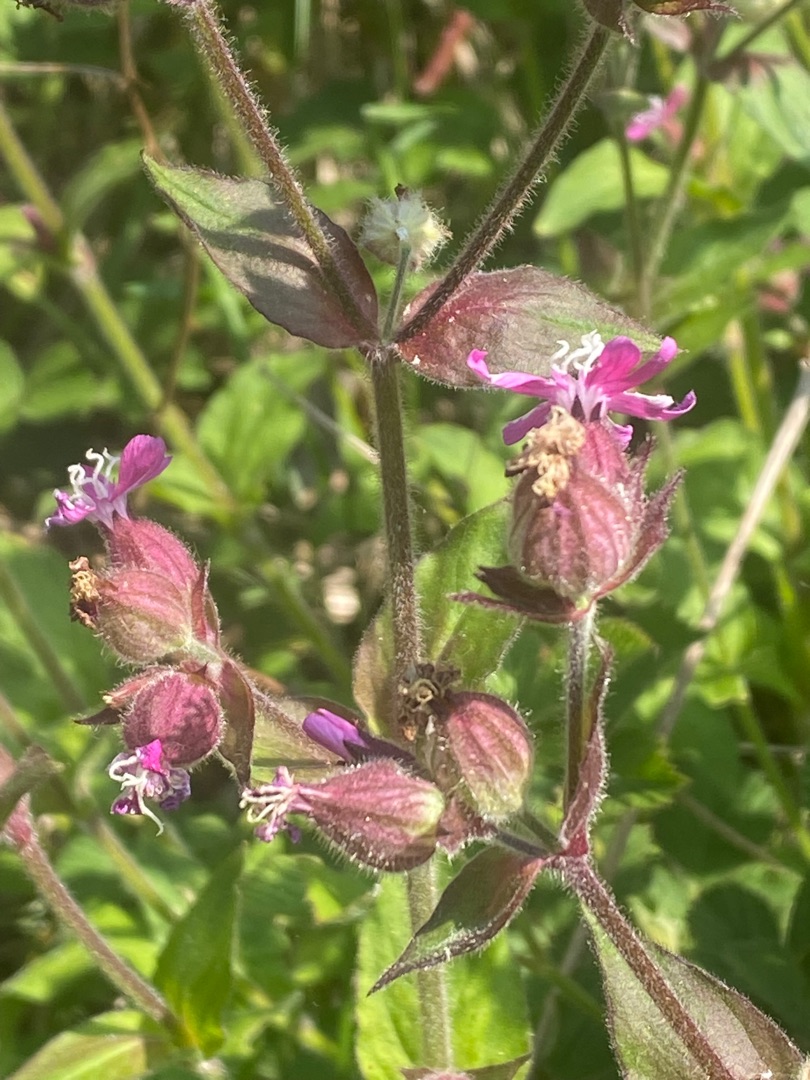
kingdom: Plantae
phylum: Tracheophyta
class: Magnoliopsida
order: Caryophyllales
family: Caryophyllaceae
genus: Silene
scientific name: Silene dioica
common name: Dagpragtstjerne
